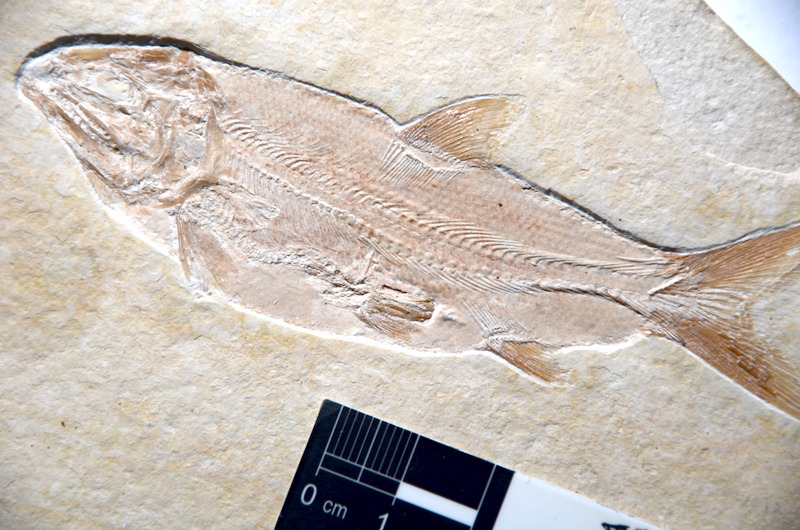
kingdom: Animalia
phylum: Chordata
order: Amiiformes
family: Caturidae
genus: Caturus
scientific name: Caturus furcatus
